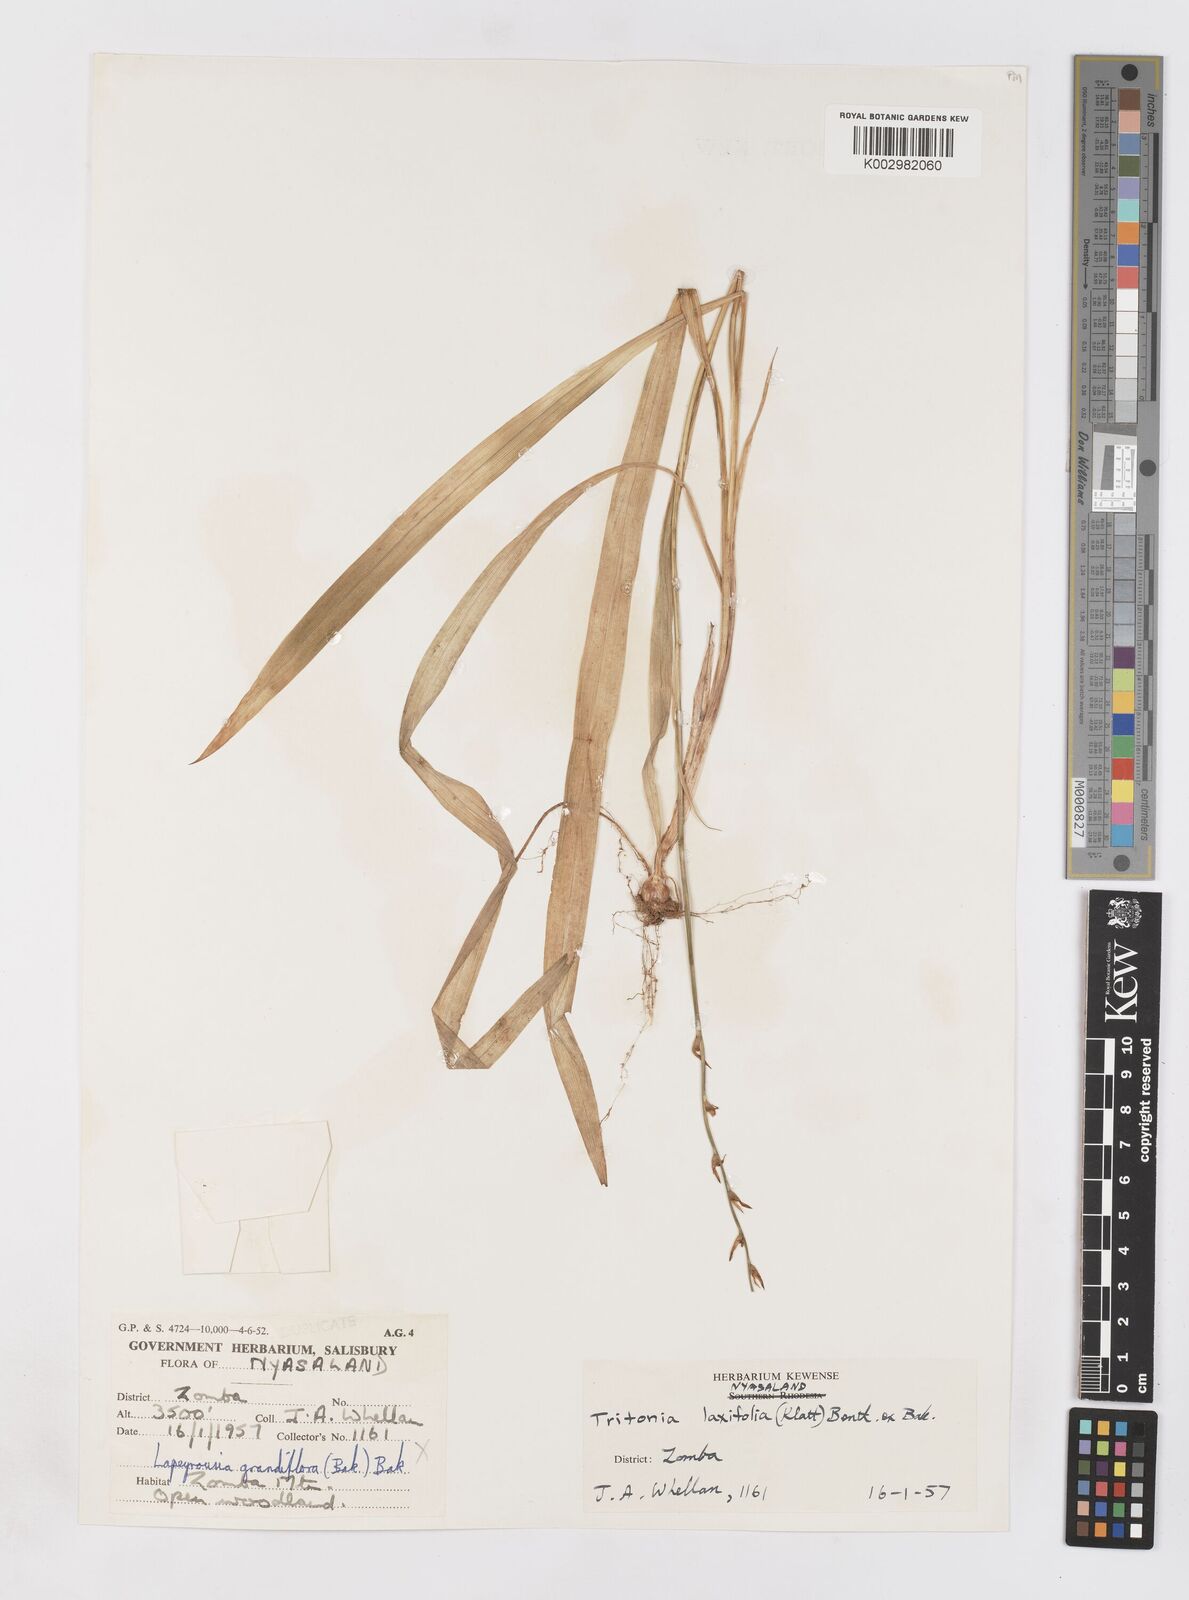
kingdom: Plantae
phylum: Tracheophyta
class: Liliopsida
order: Asparagales
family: Iridaceae
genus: Tritonia
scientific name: Tritonia laxifolia
